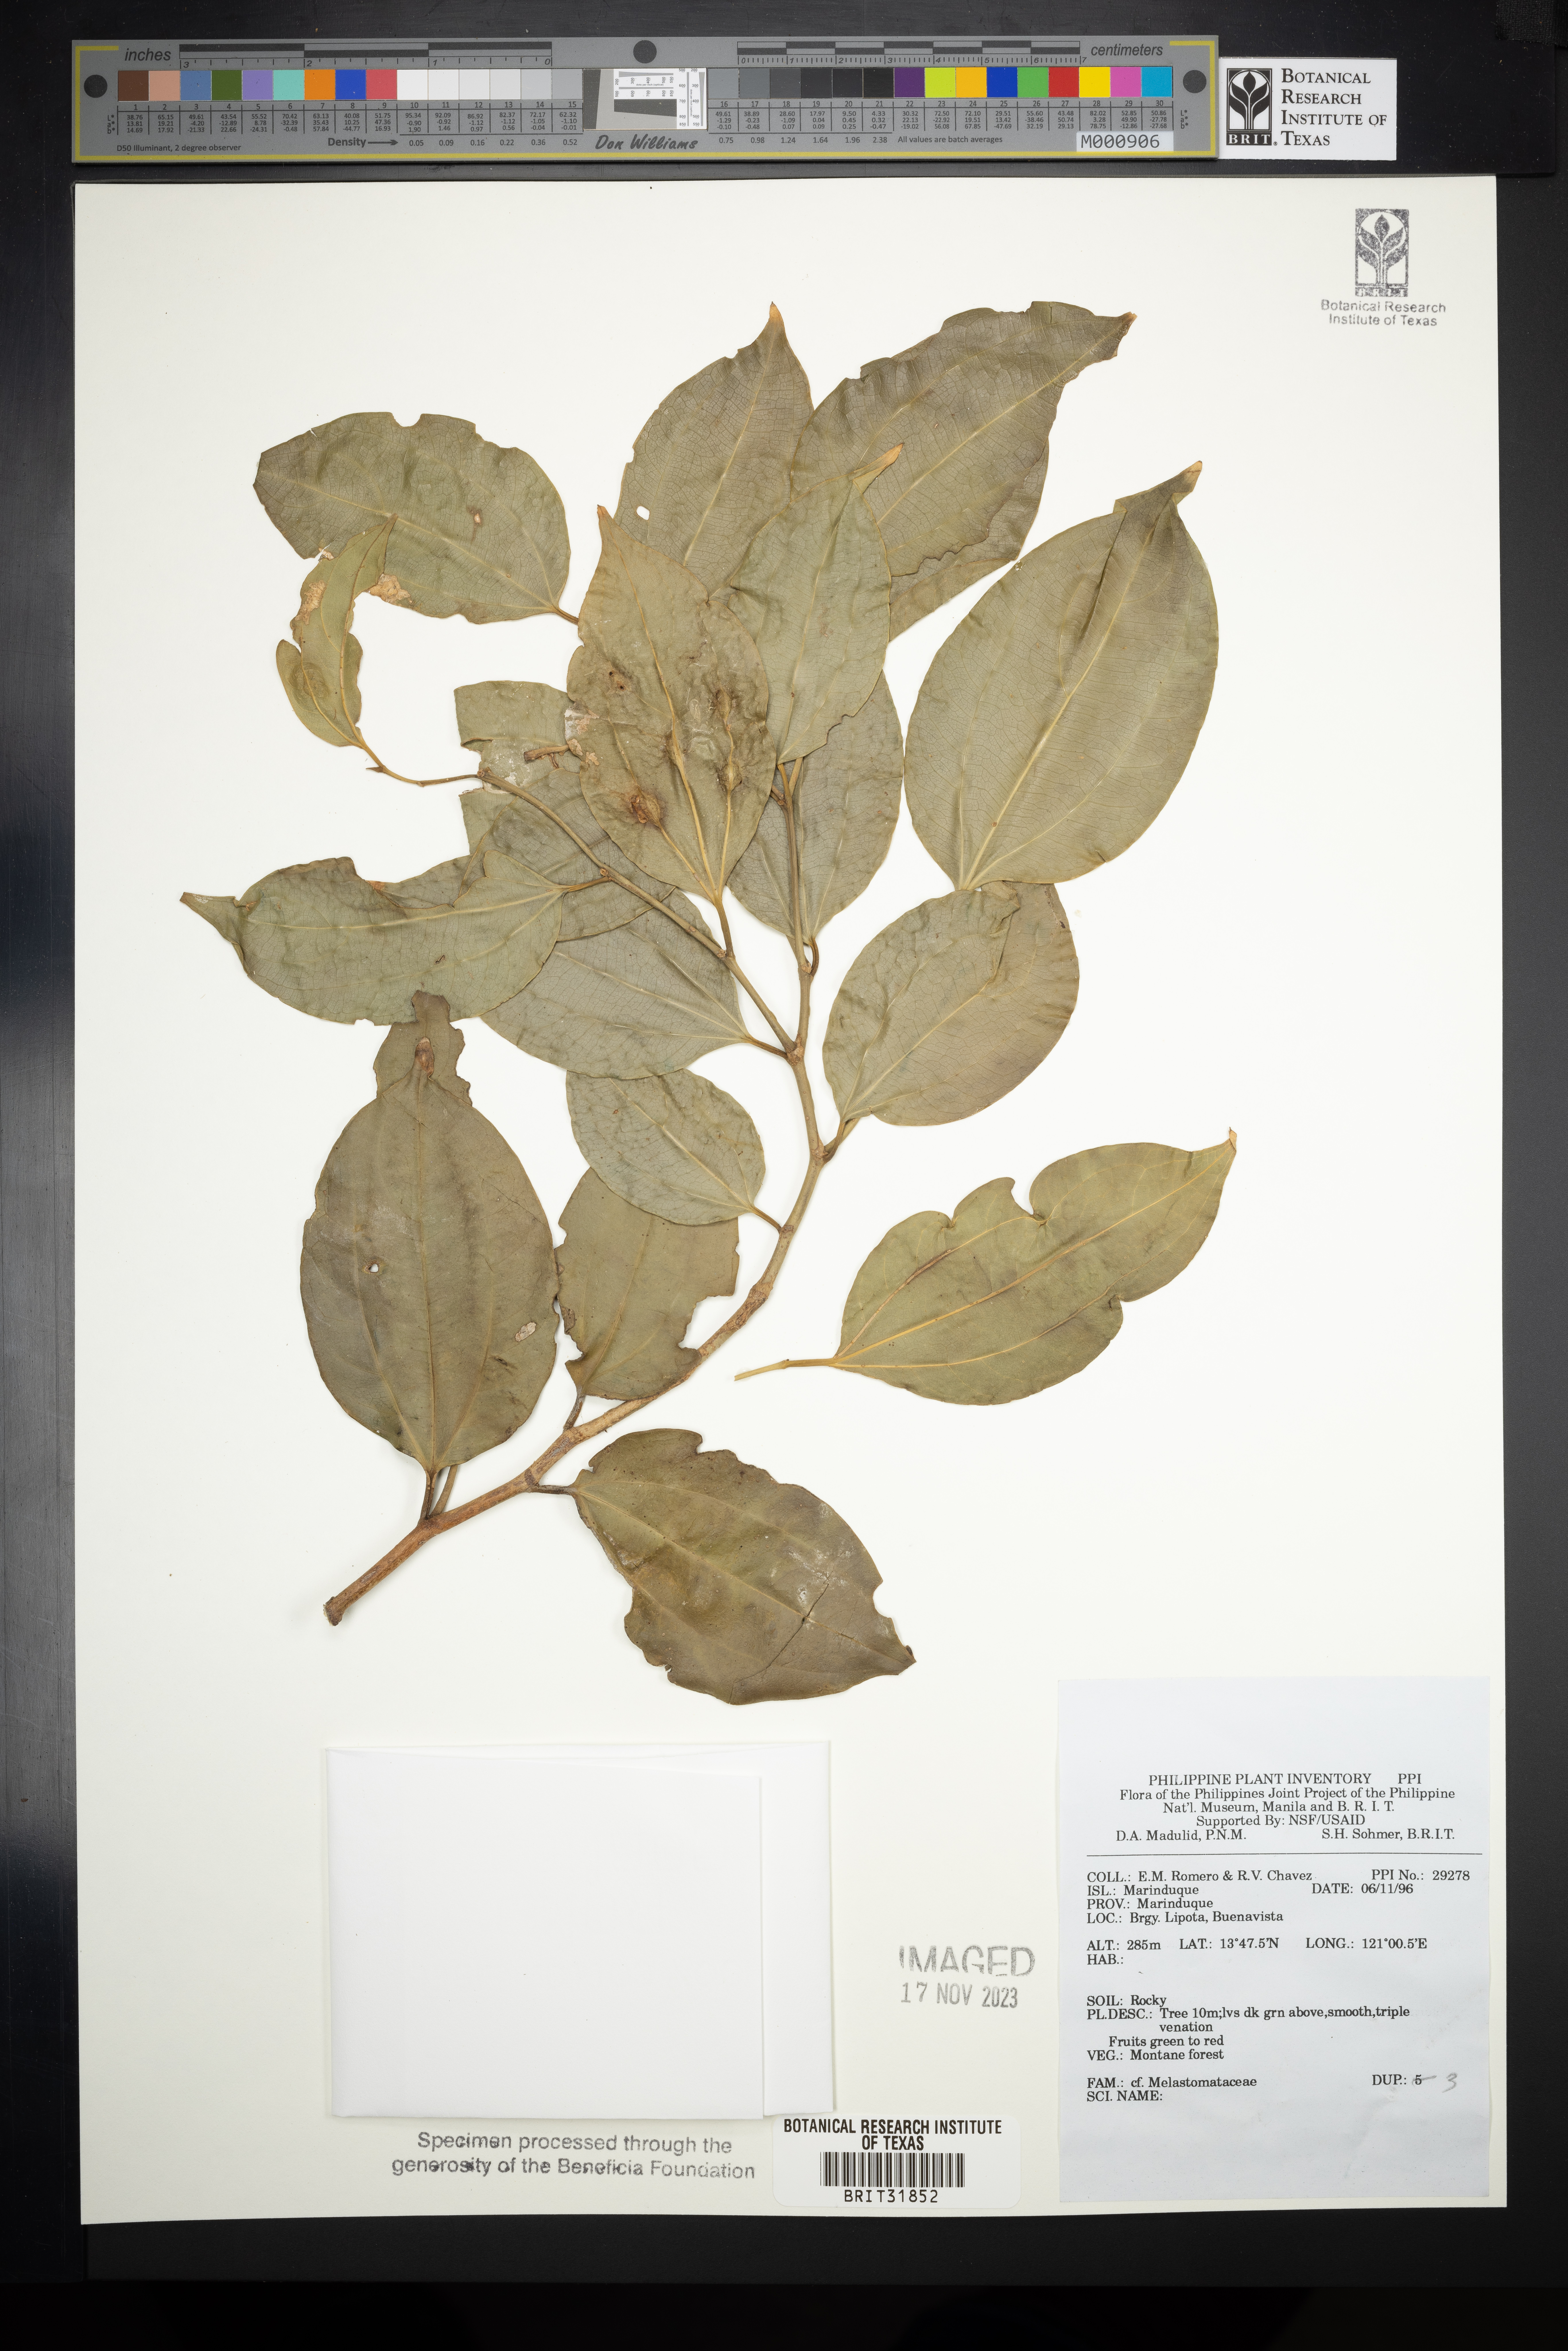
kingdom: Plantae
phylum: Tracheophyta
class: Magnoliopsida
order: Myrtales
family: Melastomataceae
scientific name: Melastomataceae
